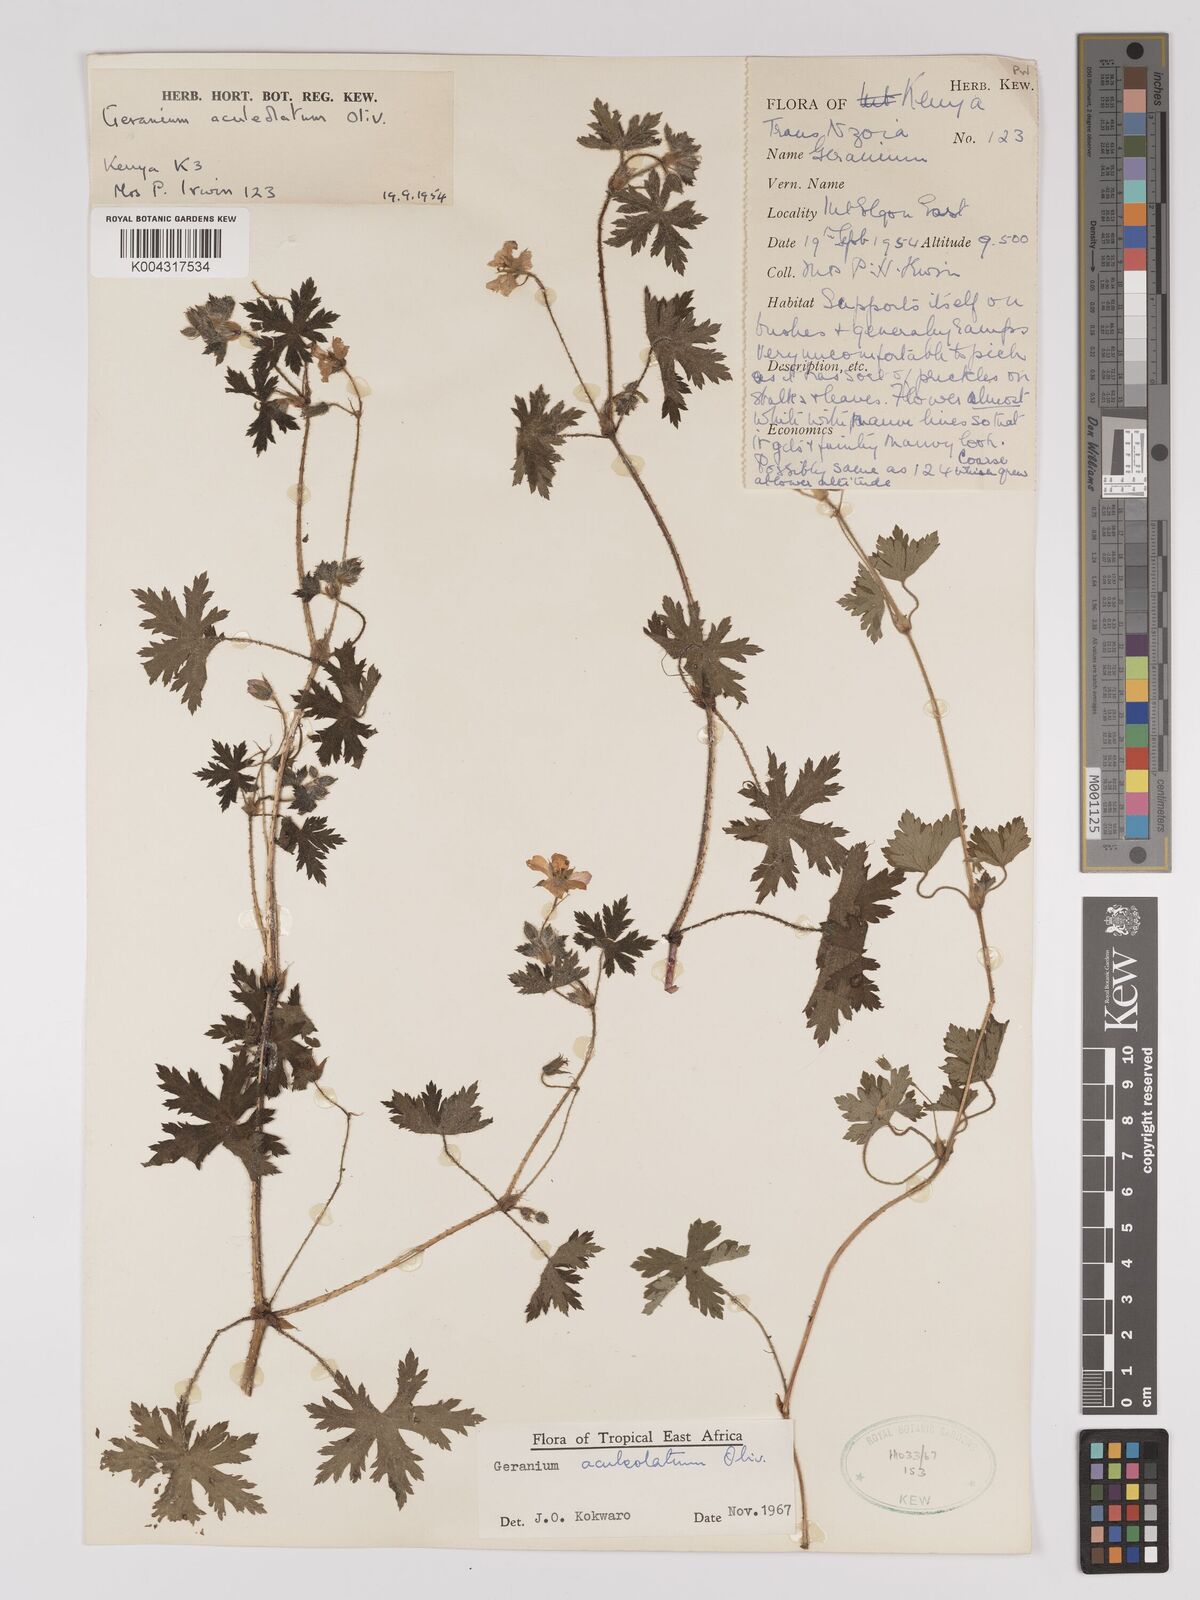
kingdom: Plantae
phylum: Tracheophyta
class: Magnoliopsida
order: Geraniales
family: Geraniaceae
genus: Geranium
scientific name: Geranium aculeolatum
